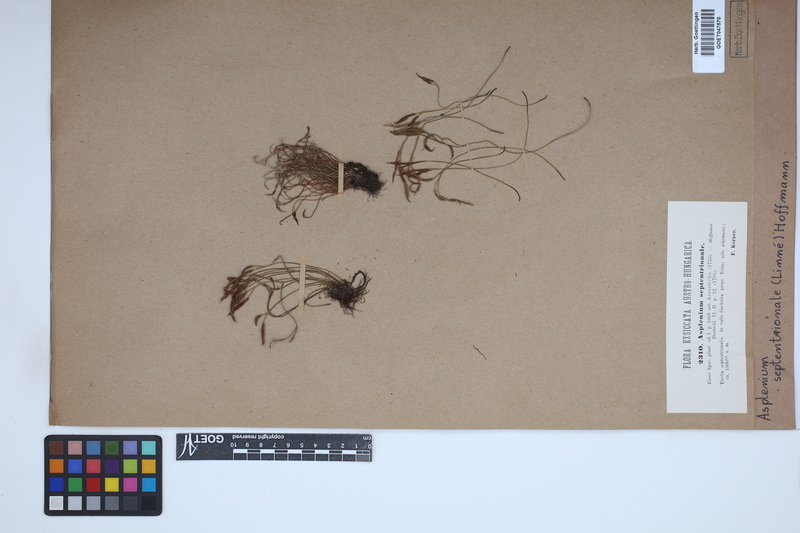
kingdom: Plantae
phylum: Tracheophyta
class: Polypodiopsida
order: Polypodiales
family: Aspleniaceae
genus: Asplenium
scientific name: Asplenium septentrionale
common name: Forked spleenwort
